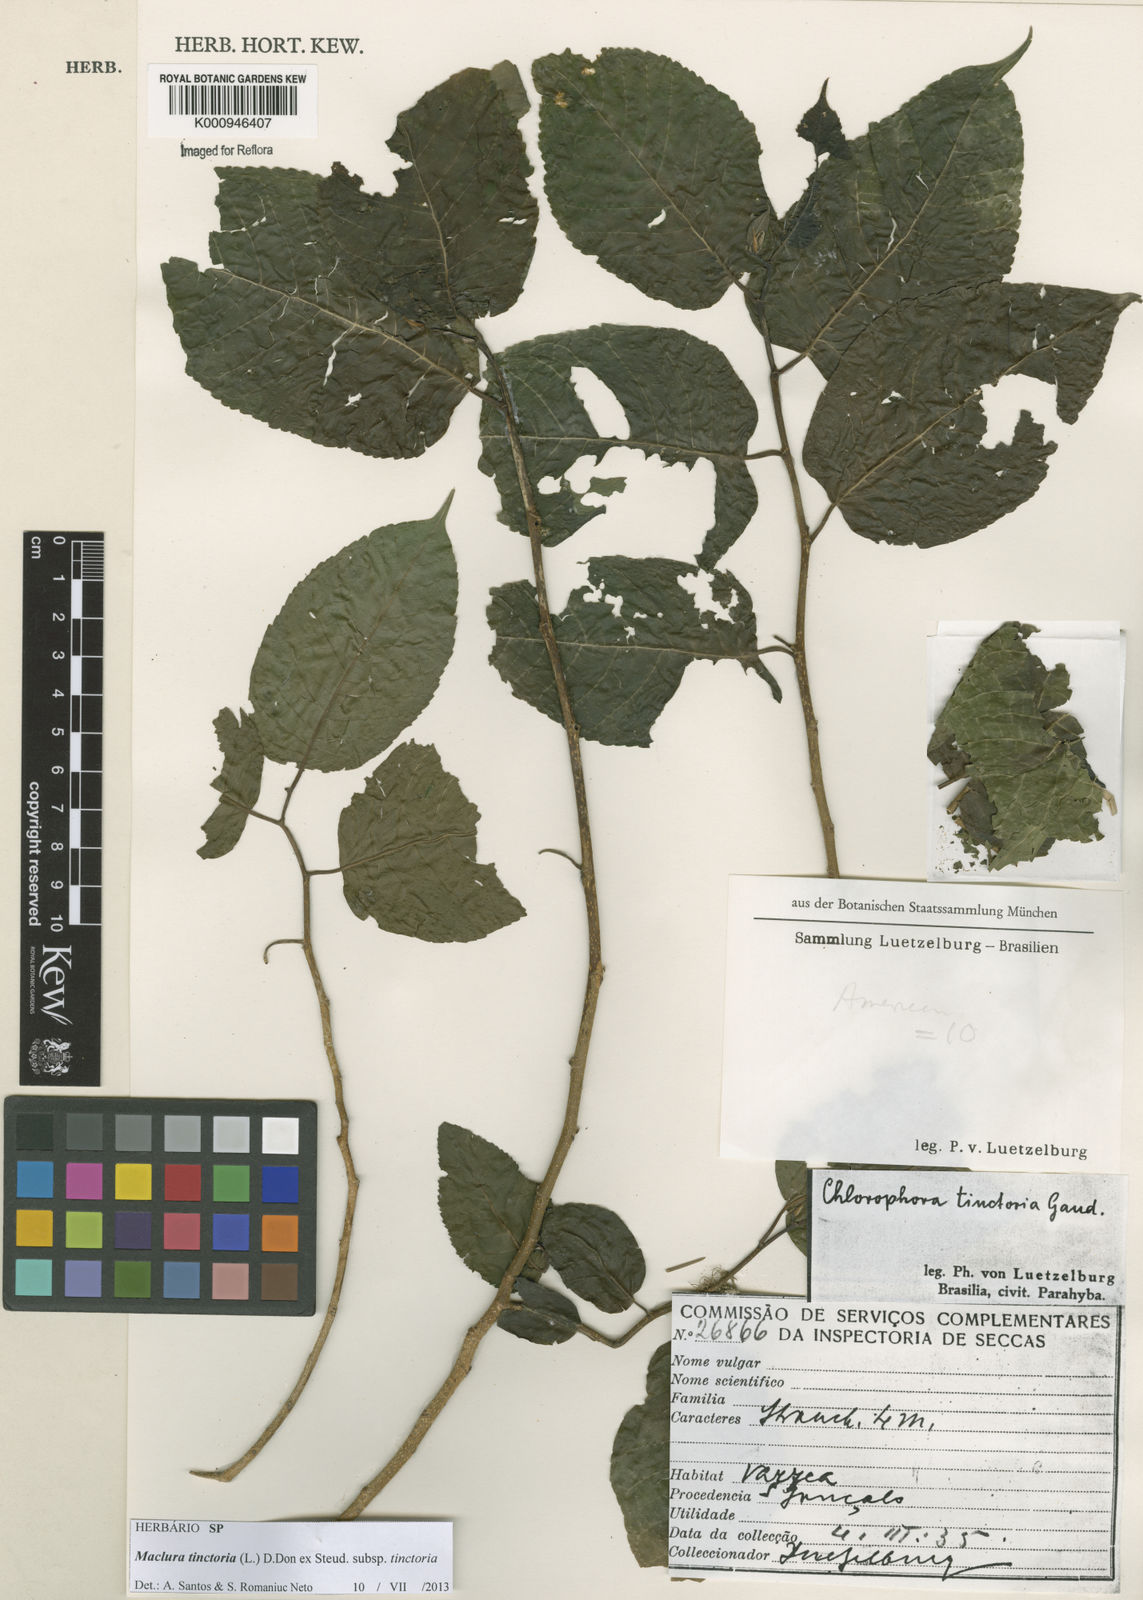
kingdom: Plantae
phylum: Tracheophyta
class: Magnoliopsida
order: Rosales
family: Moraceae
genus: Maclura
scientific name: Maclura
